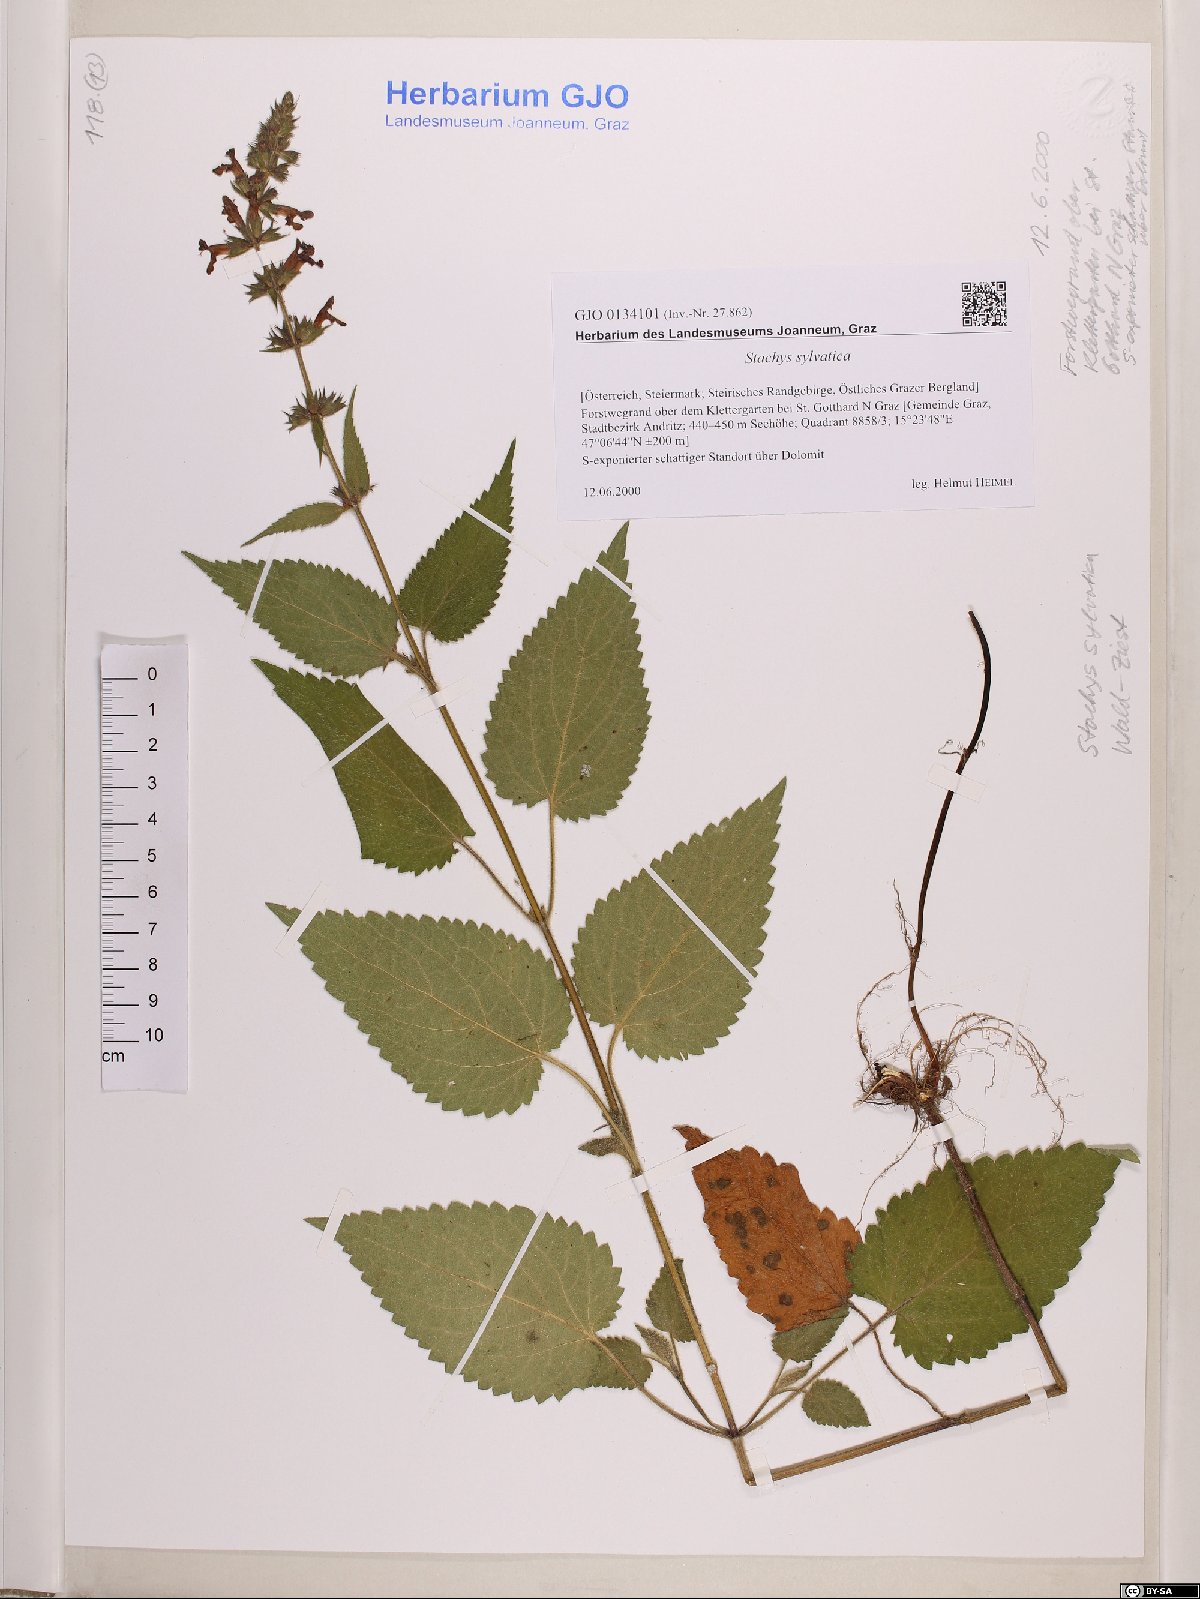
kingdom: Plantae
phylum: Tracheophyta
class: Magnoliopsida
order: Lamiales
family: Lamiaceae
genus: Stachys
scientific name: Stachys sylvatica
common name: Hedge woundwort
